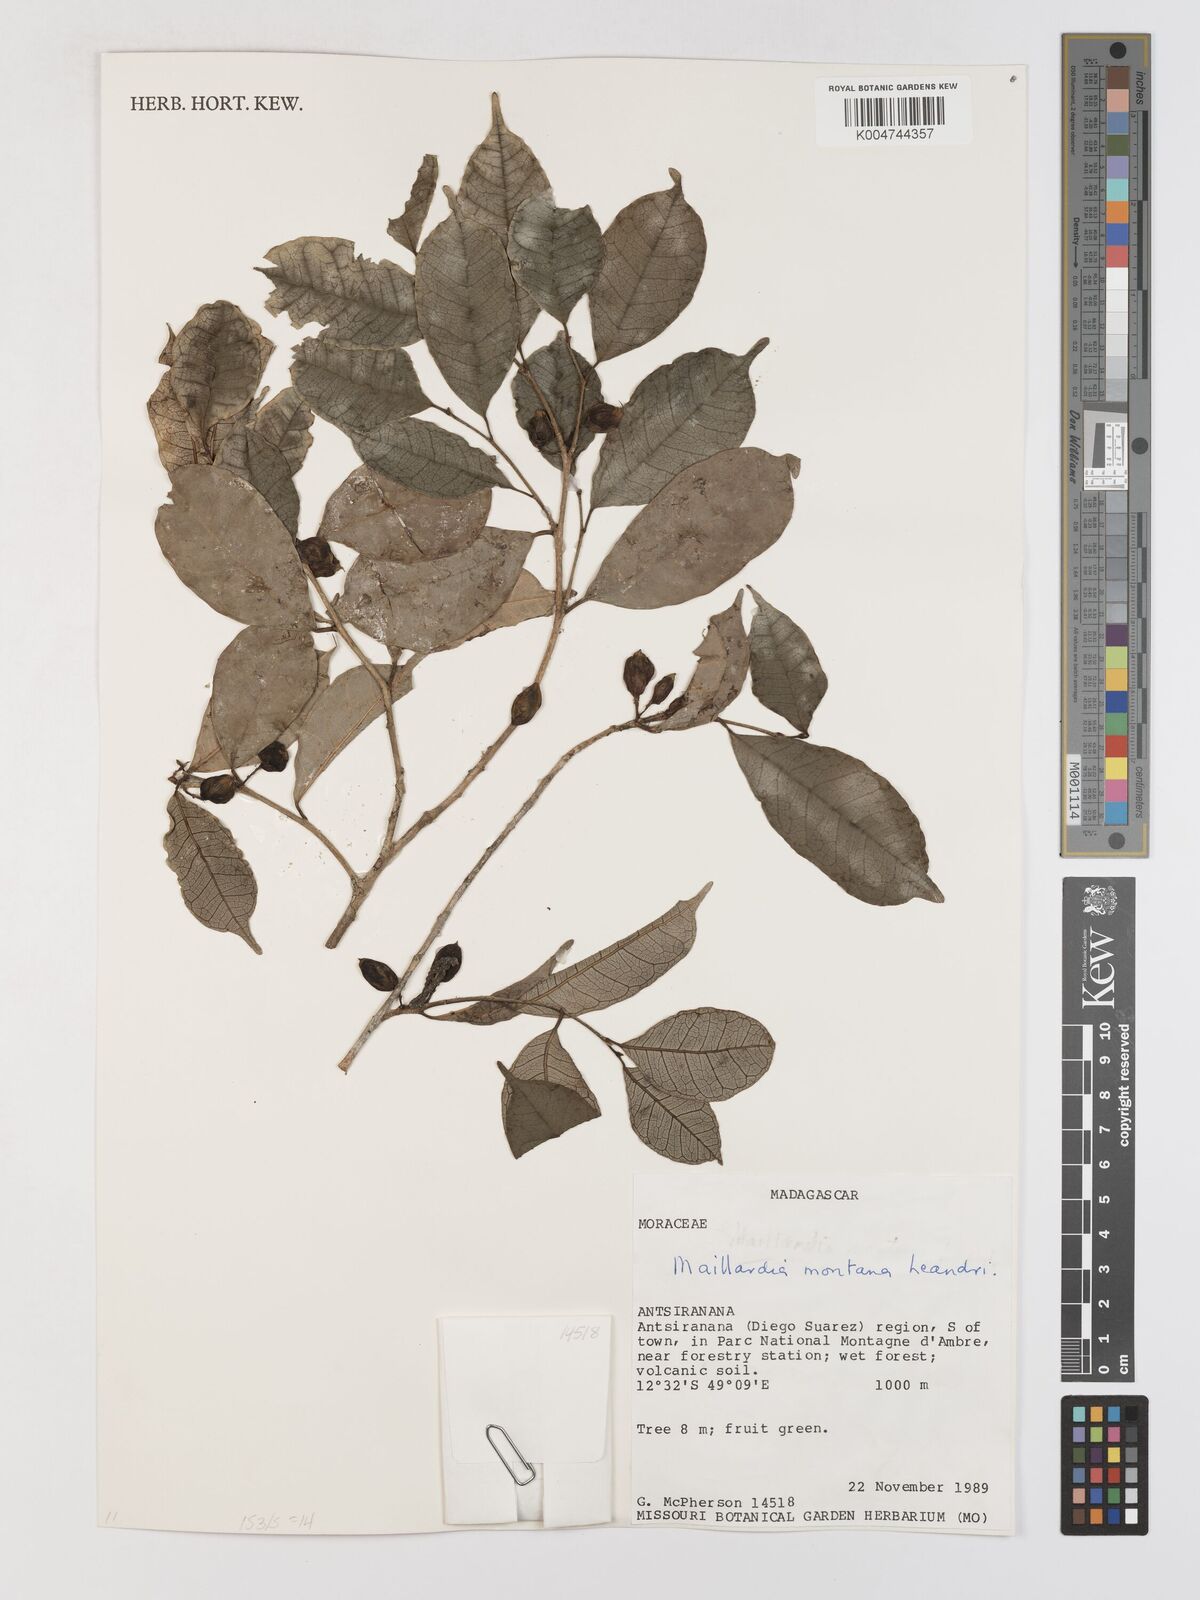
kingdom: Plantae
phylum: Tracheophyta
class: Magnoliopsida
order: Rosales
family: Moraceae
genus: Maillardia
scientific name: Maillardia montana
